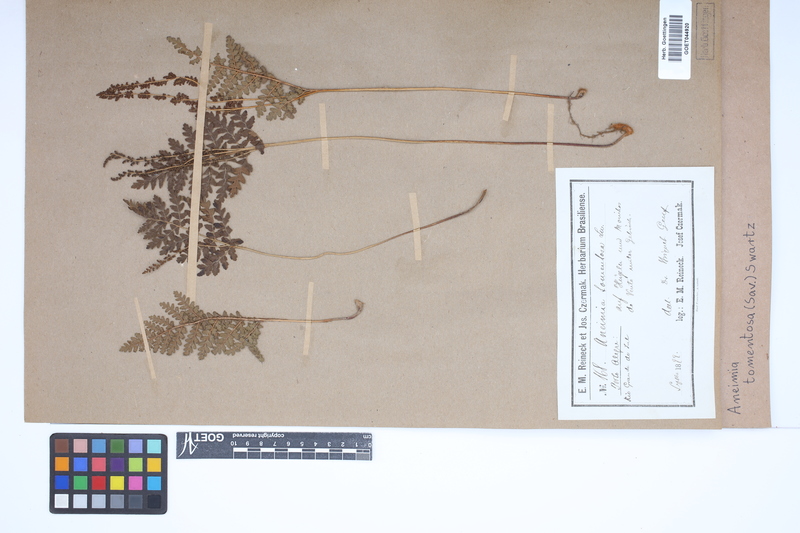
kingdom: Plantae
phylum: Tracheophyta
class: Polypodiopsida
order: Schizaeales
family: Anemiaceae
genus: Anemia
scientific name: Anemia tomentosa
